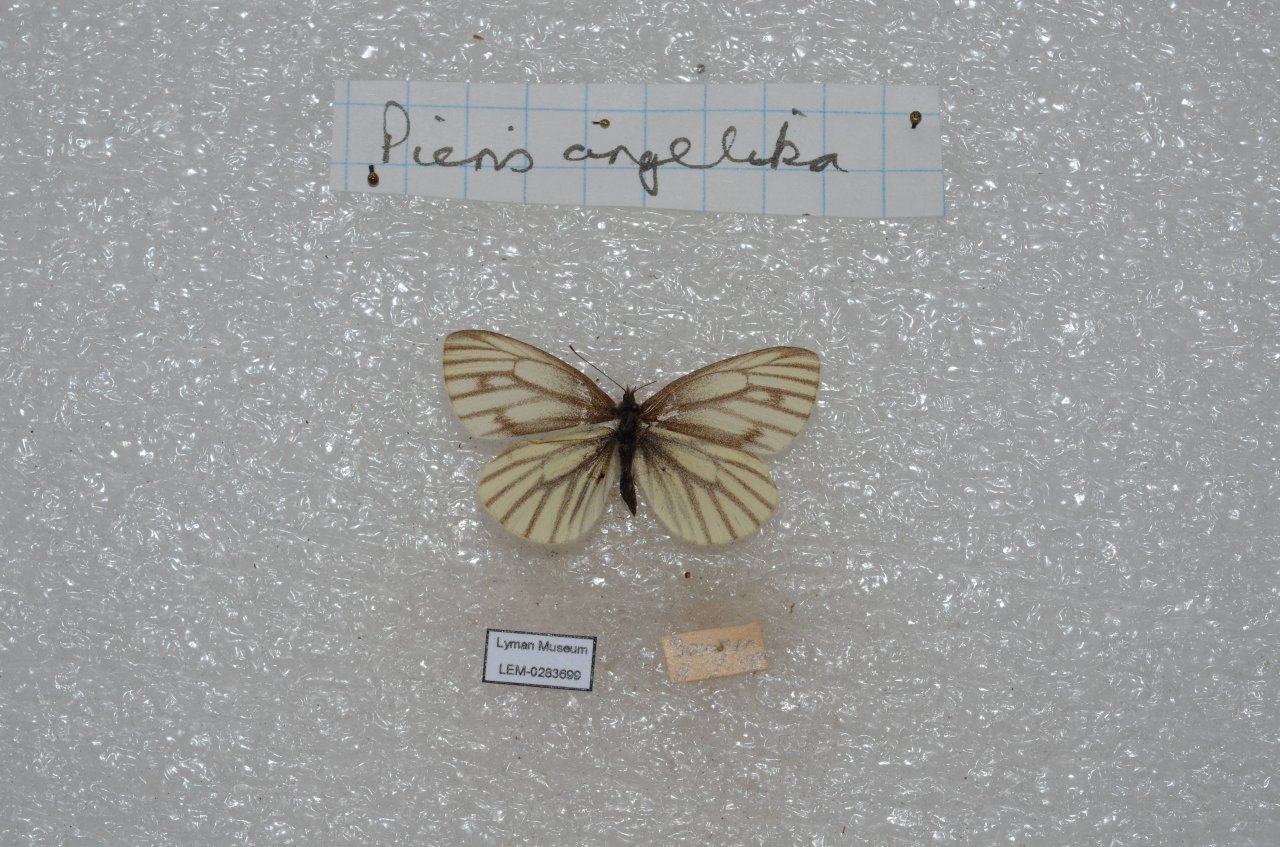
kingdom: Animalia
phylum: Arthropoda
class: Insecta
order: Lepidoptera
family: Pieridae
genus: Pieris
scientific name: Pieris angelika
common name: Arctic White
